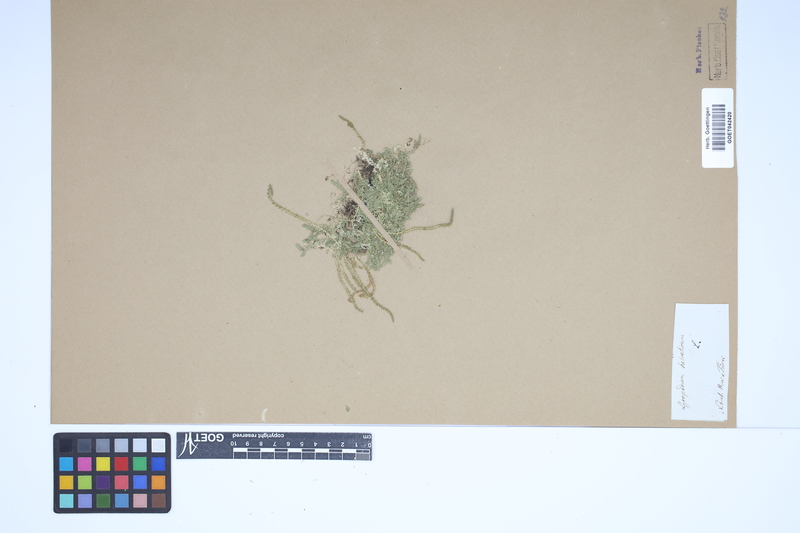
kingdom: Plantae
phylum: Tracheophyta
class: Lycopodiopsida
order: Selaginellales
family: Selaginellaceae
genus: Selaginella
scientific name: Selaginella helvetica
